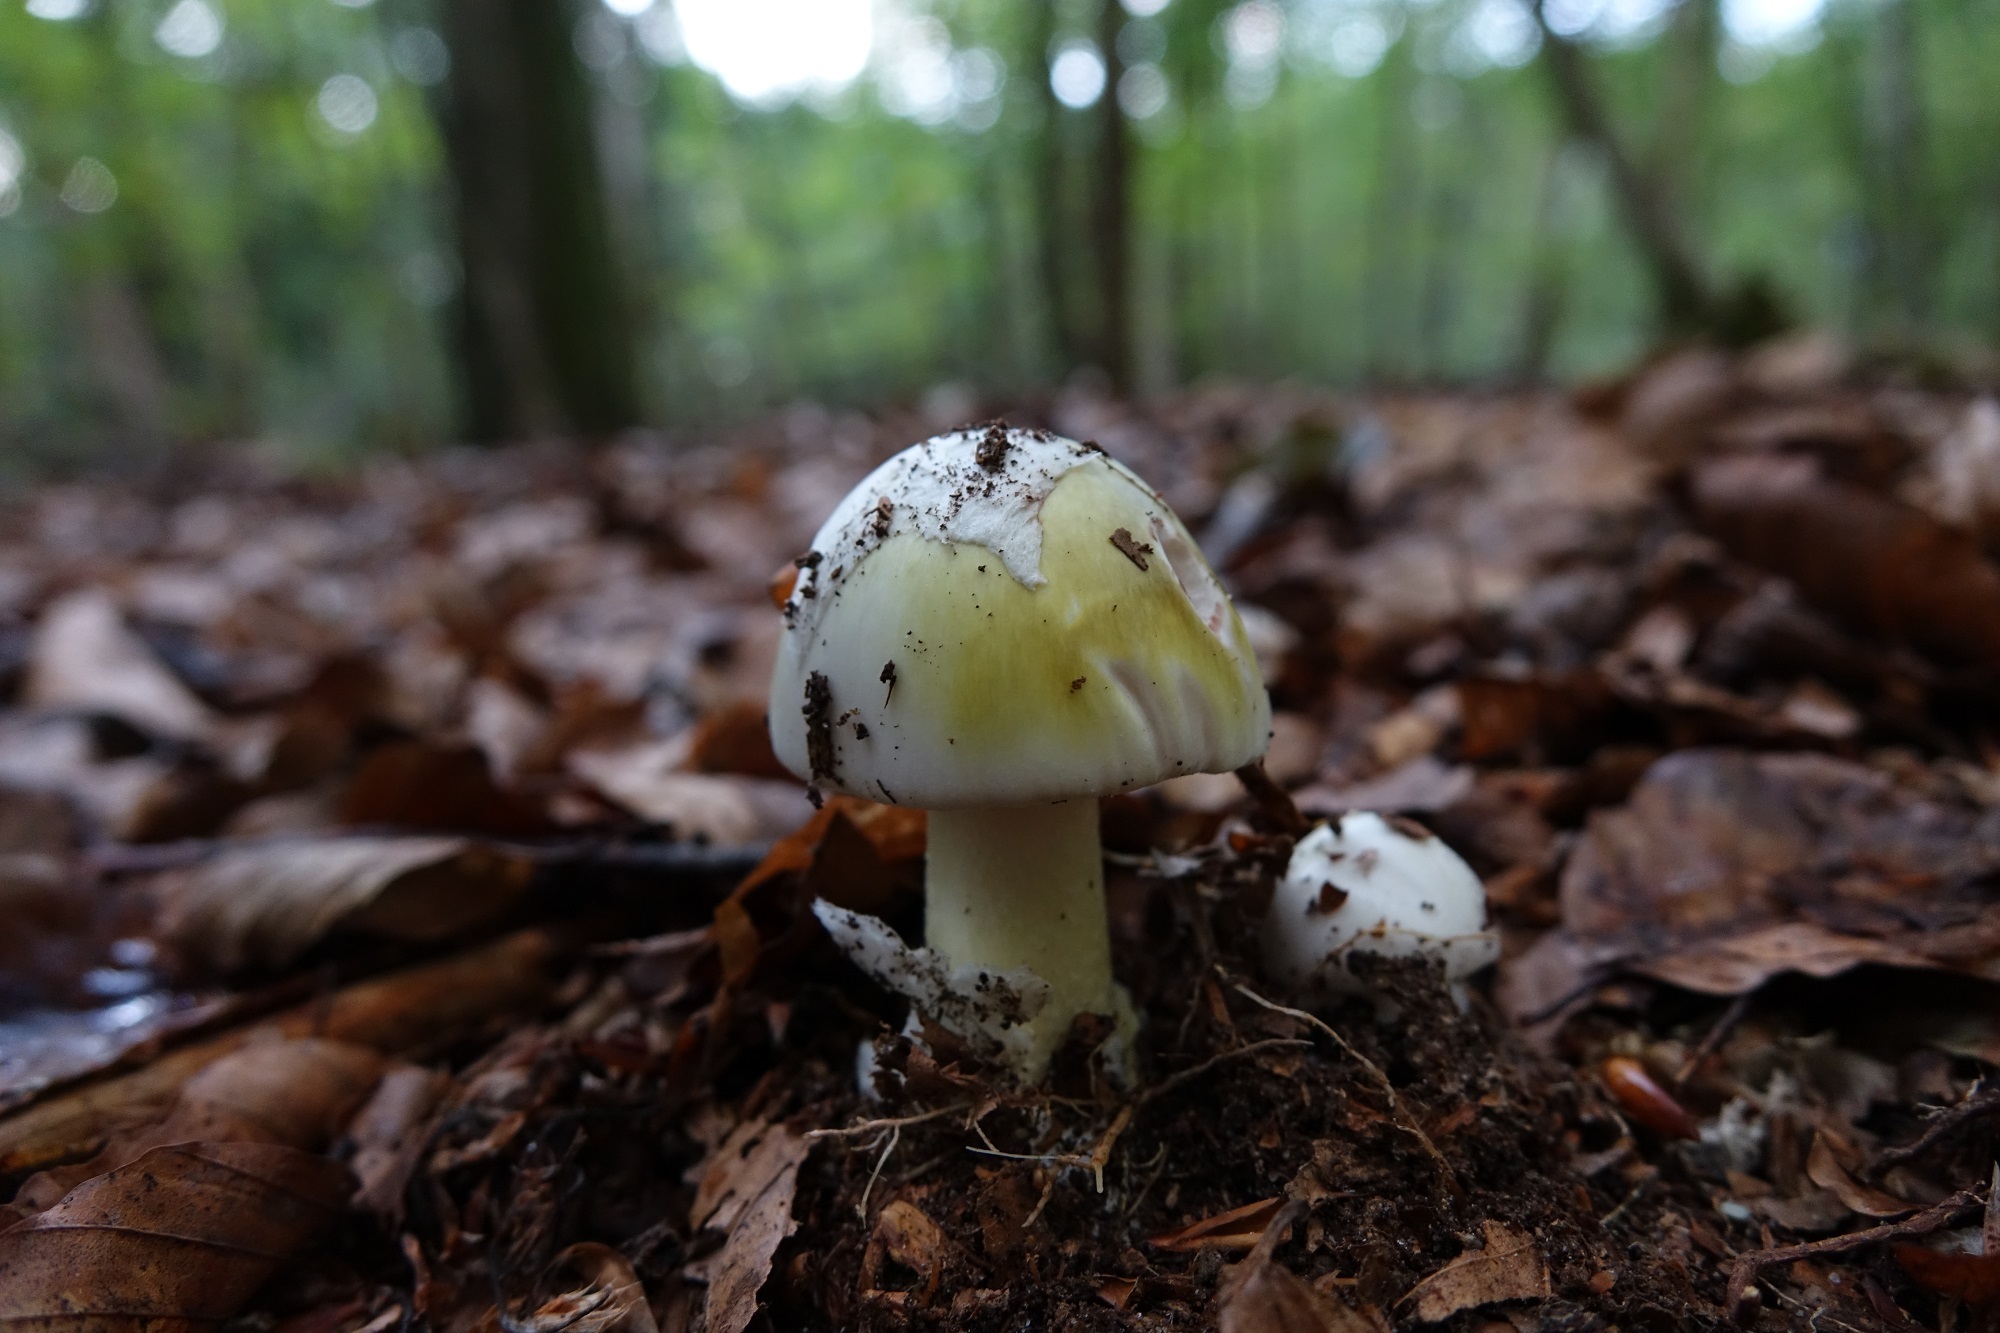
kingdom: Fungi
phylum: Basidiomycota
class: Agaricomycetes
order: Agaricales
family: Amanitaceae
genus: Amanita
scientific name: Amanita phalloides
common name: Death cap
